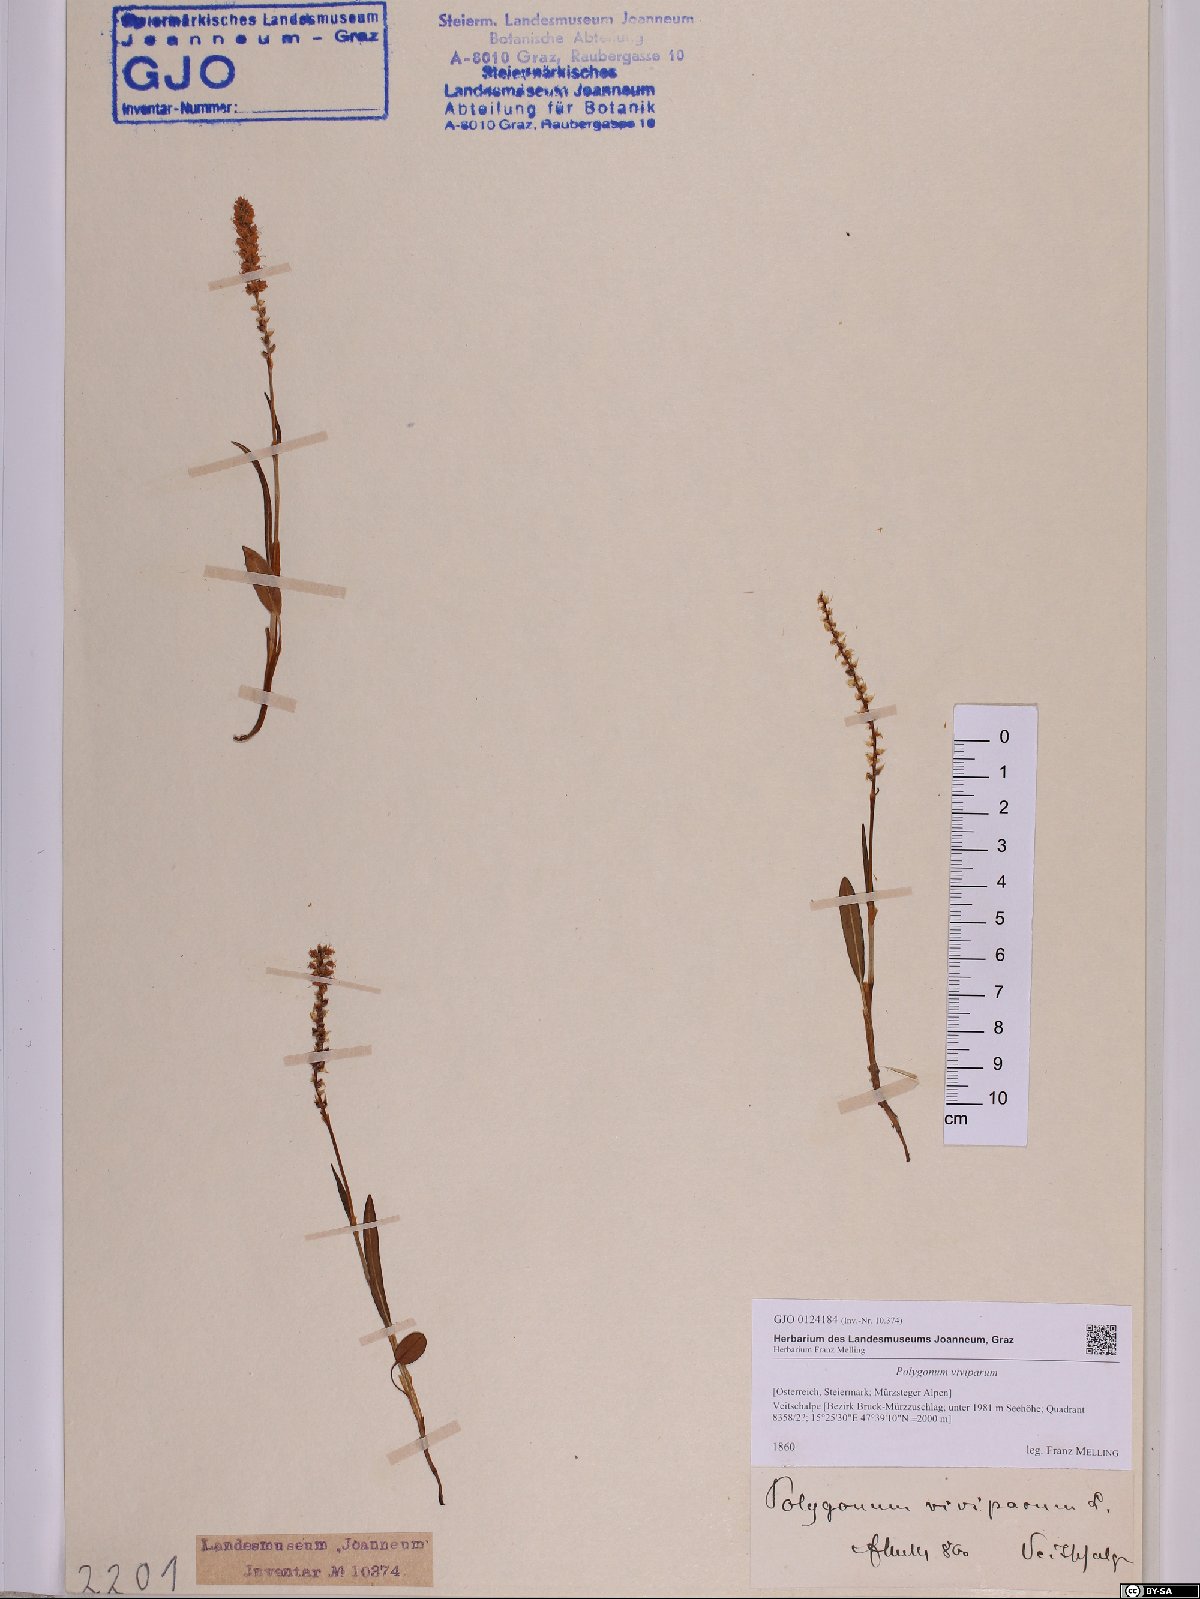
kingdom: Plantae
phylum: Tracheophyta
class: Magnoliopsida
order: Caryophyllales
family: Polygonaceae
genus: Bistorta
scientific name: Bistorta vivipara
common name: Alpine bistort
